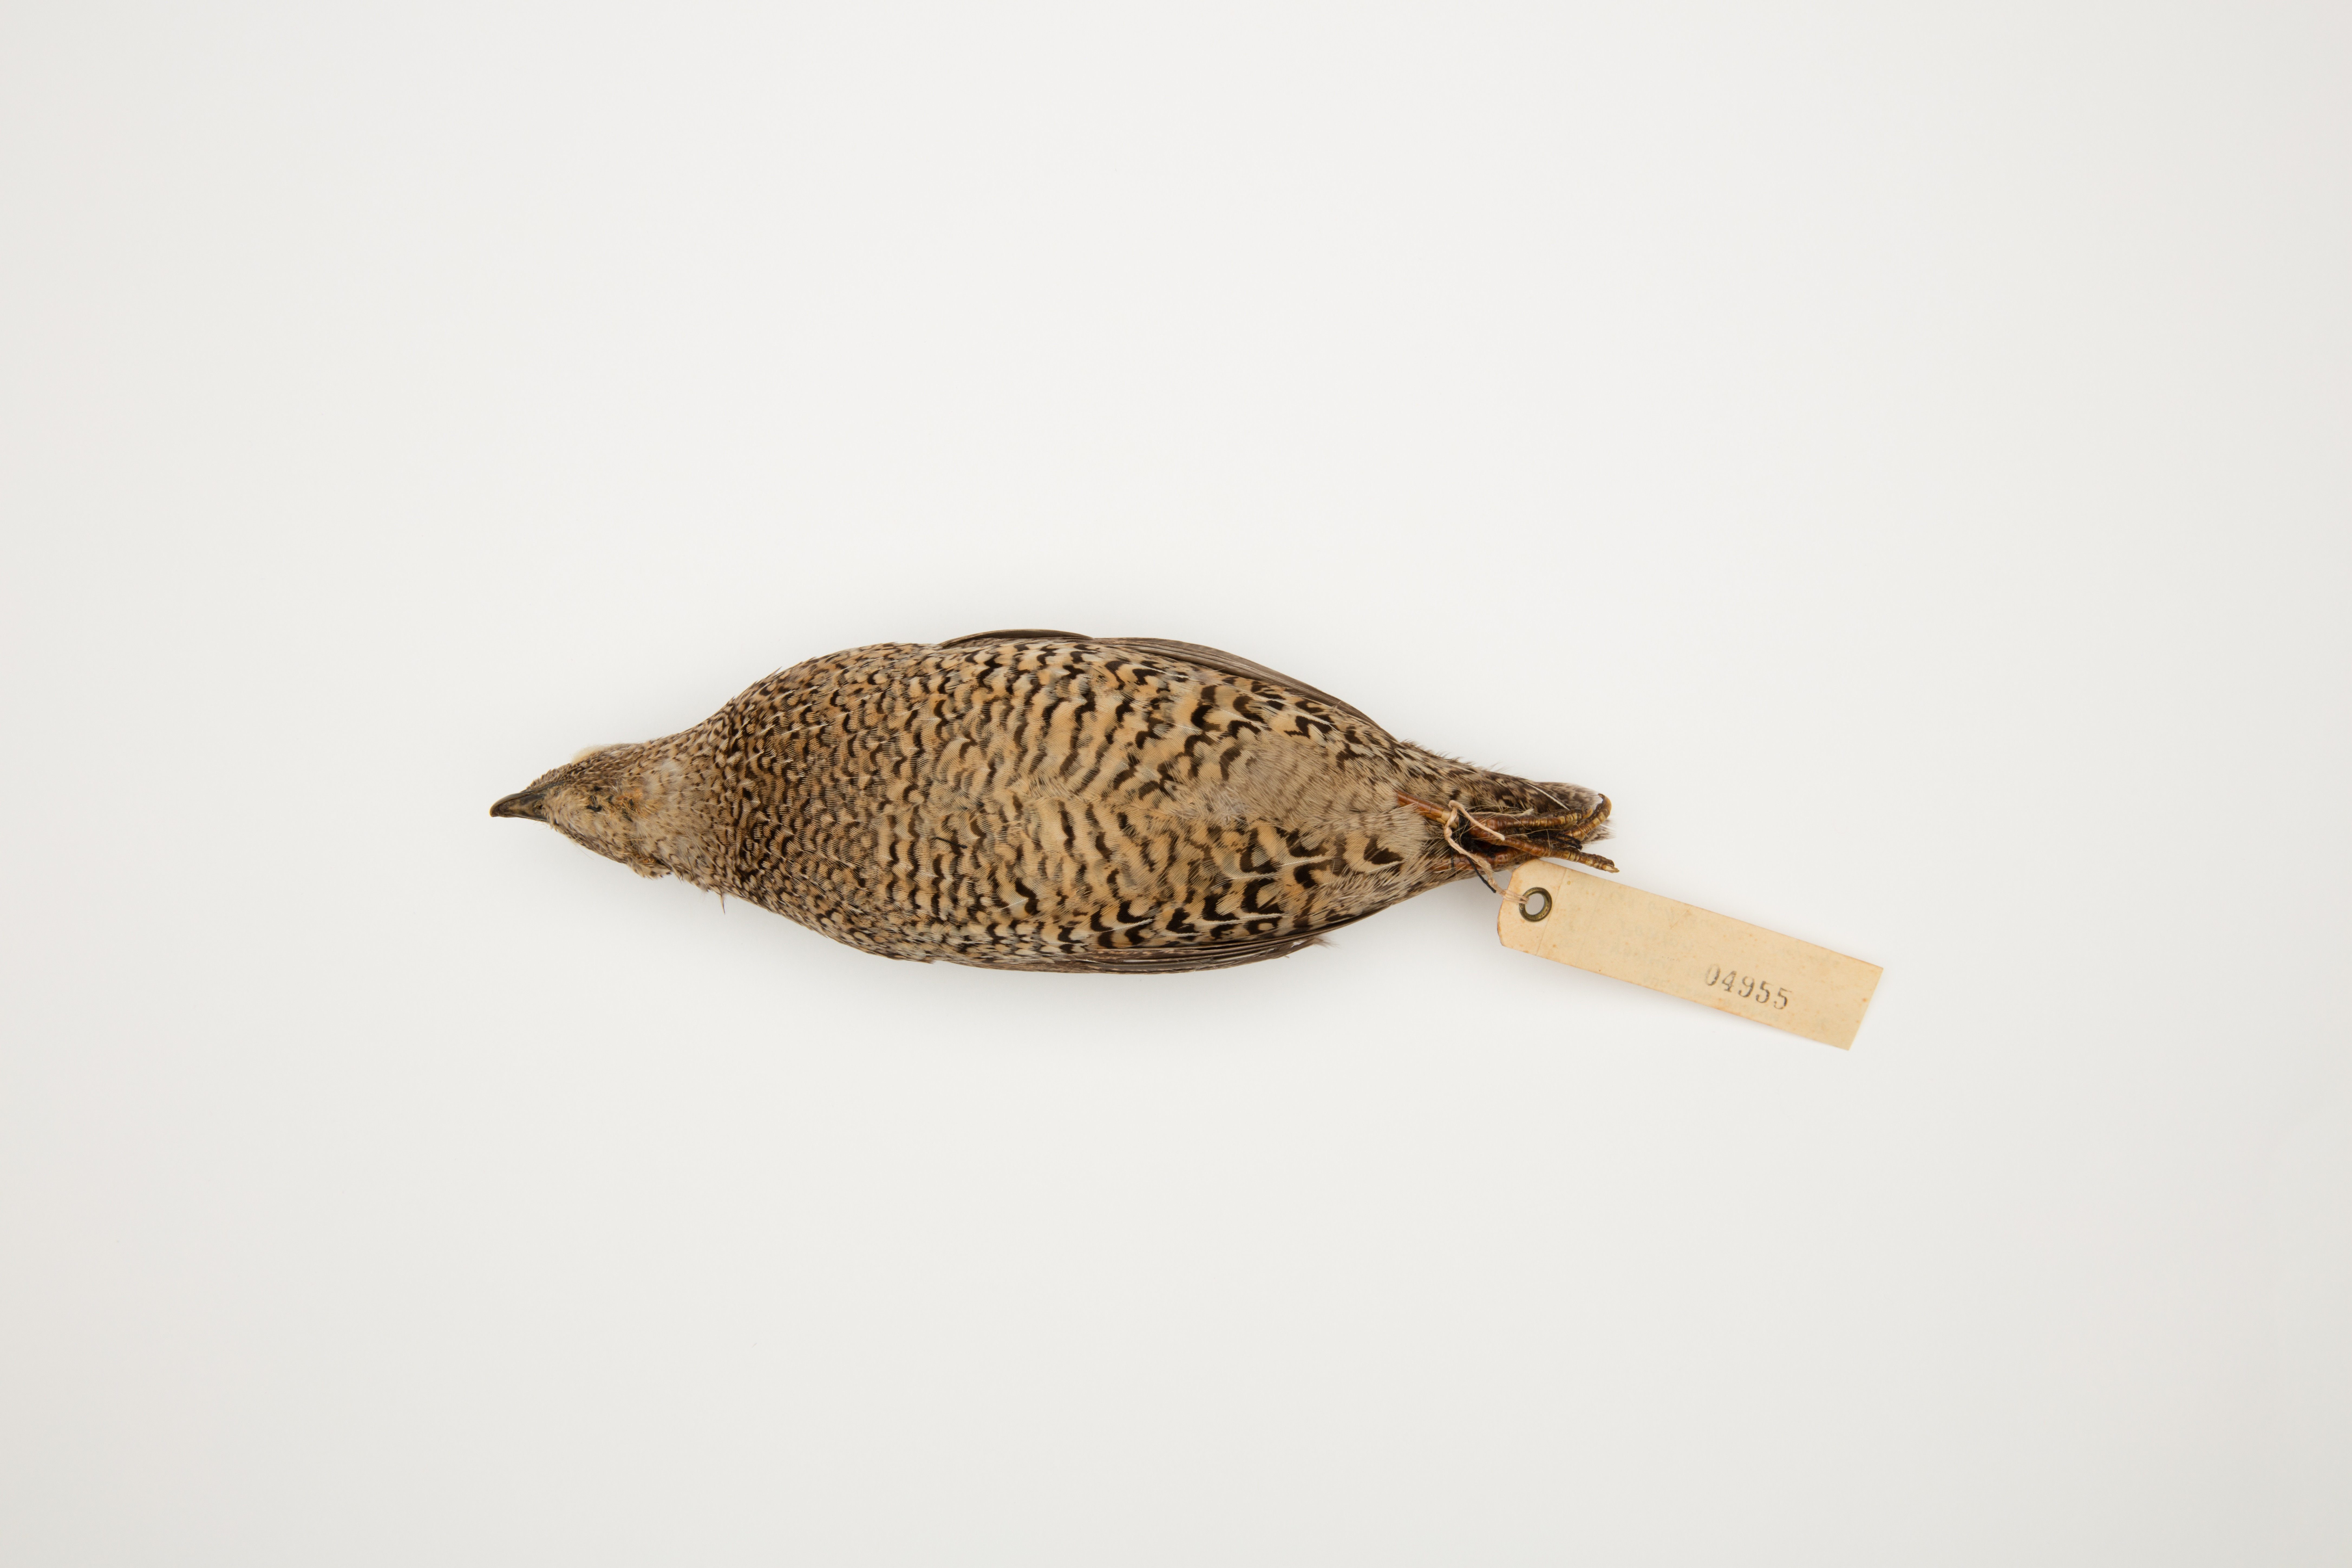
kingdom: Animalia
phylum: Chordata
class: Aves
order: Galliformes
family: Phasianidae
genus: Synoicus
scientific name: Synoicus ypsilophorus
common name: Brown quail
